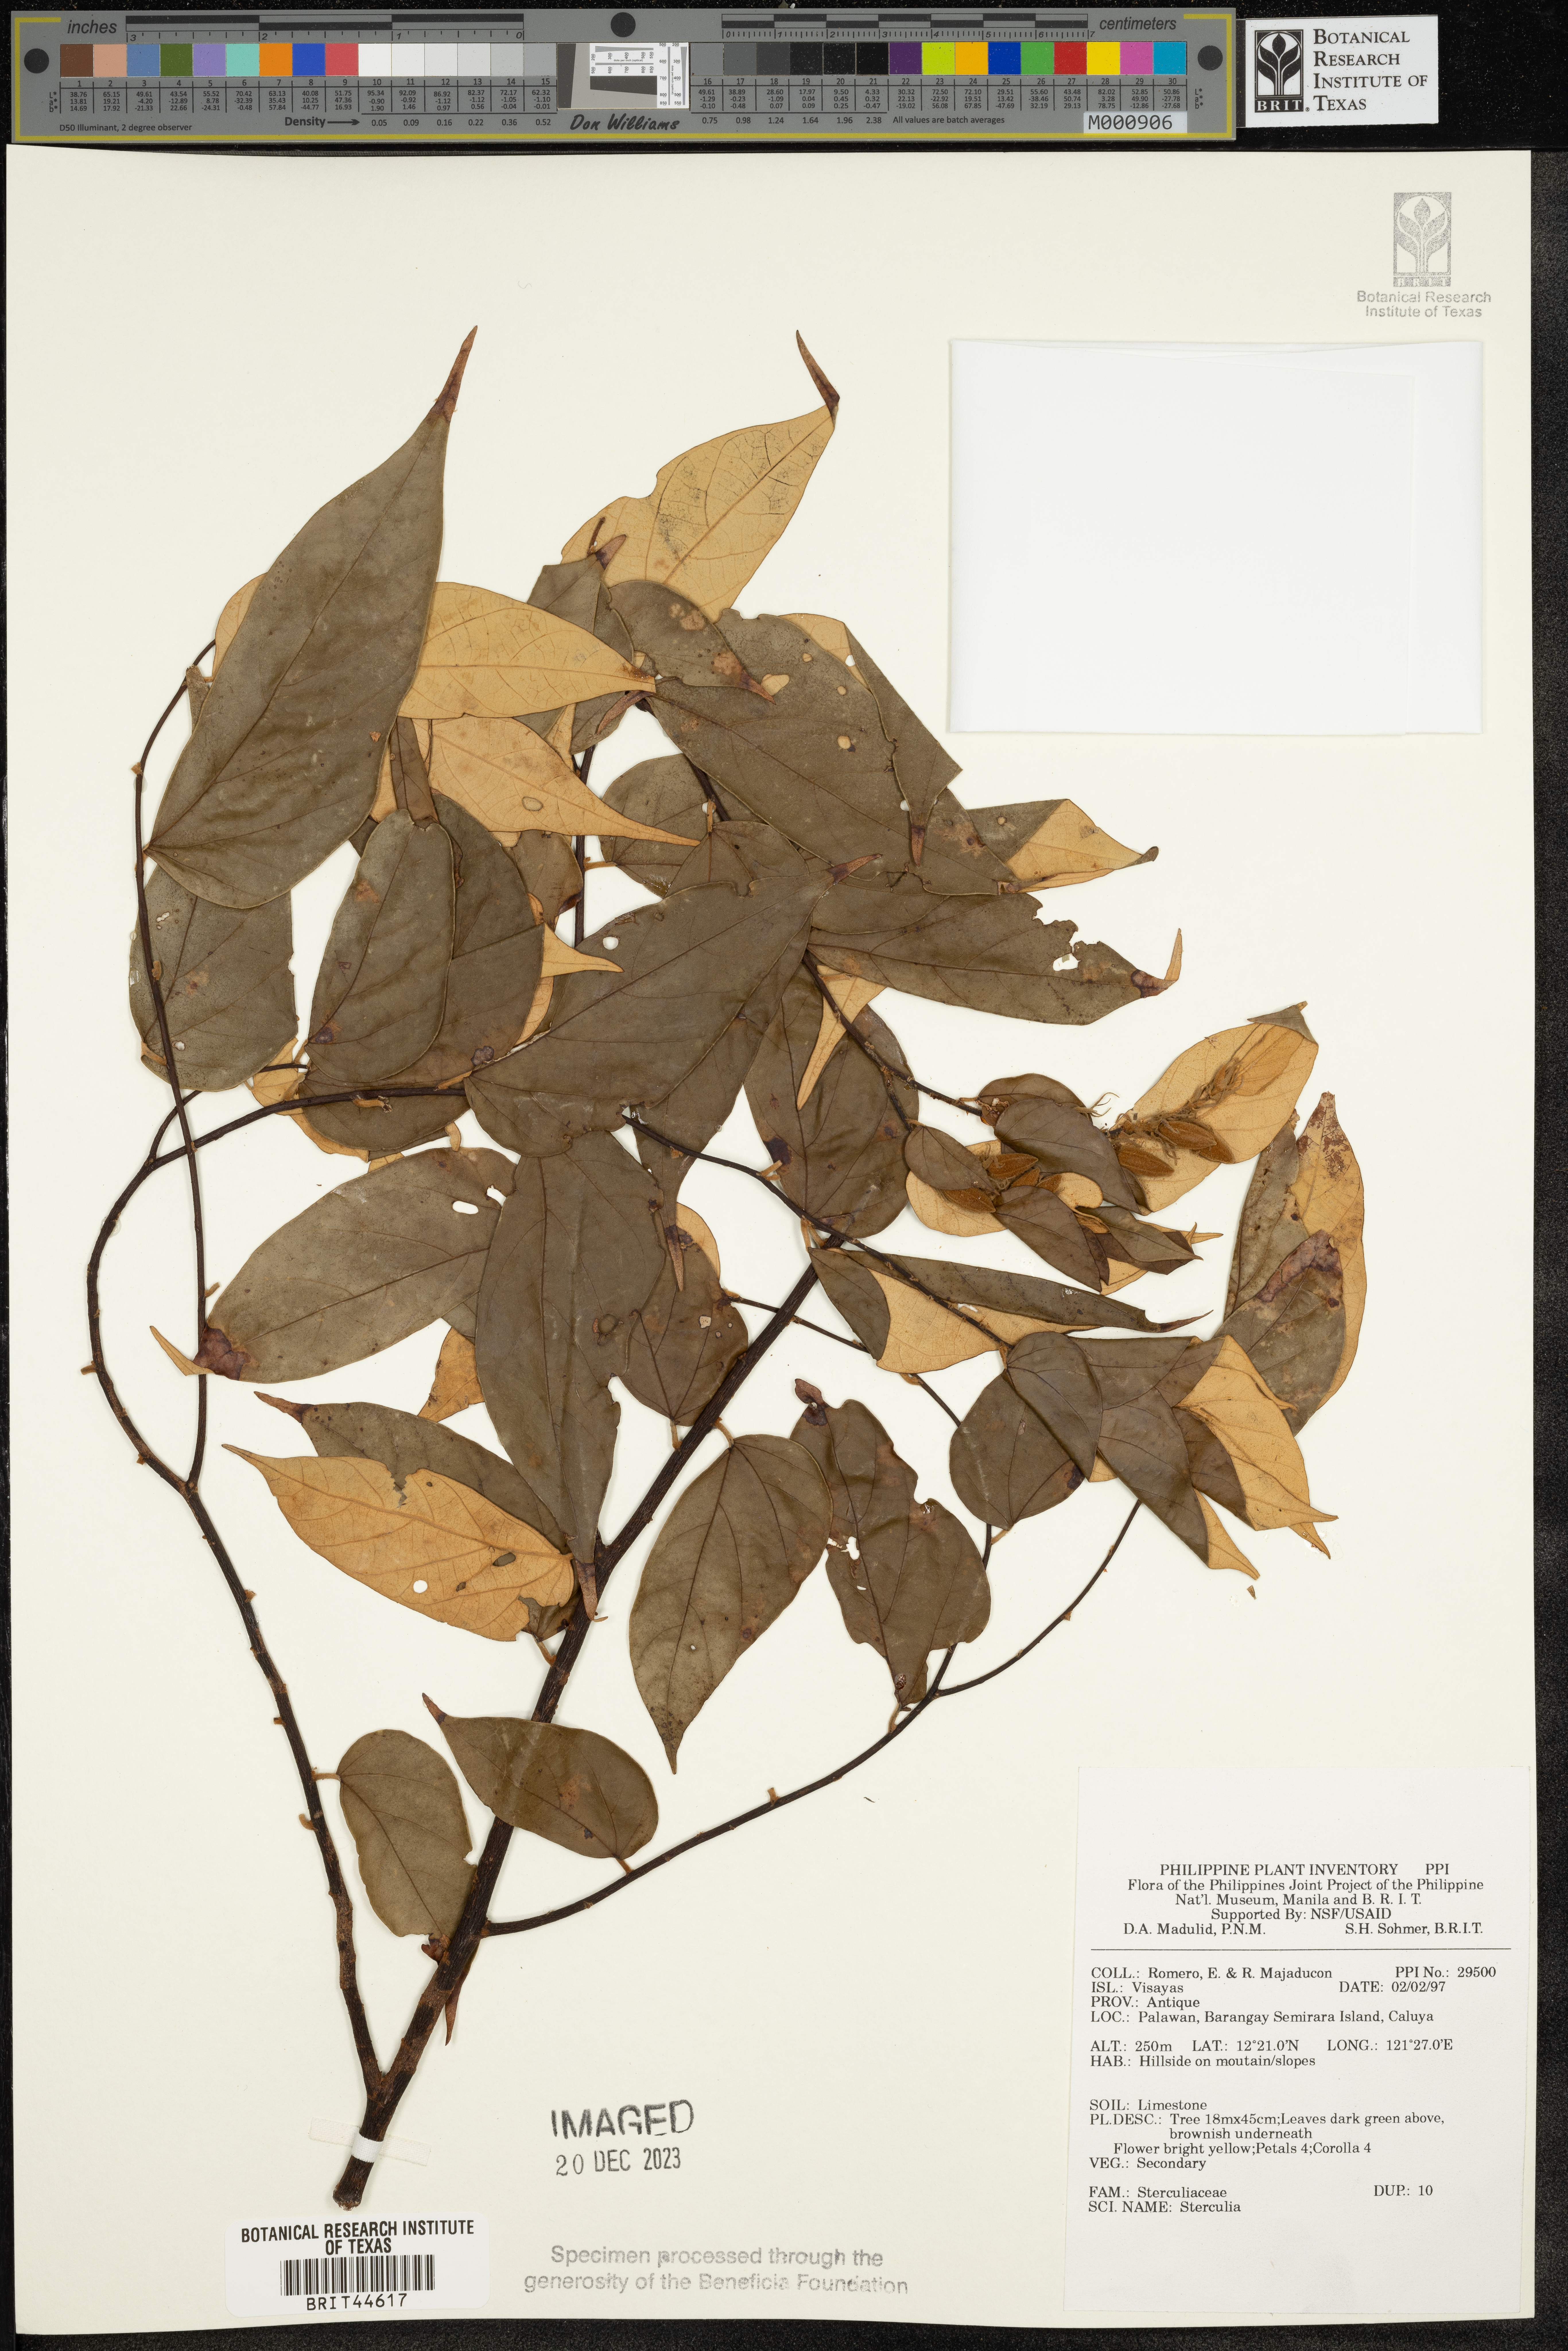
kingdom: Plantae
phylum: Tracheophyta
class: Magnoliopsida
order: Malvales
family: Malvaceae
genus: Sterculia
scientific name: Sterculia
